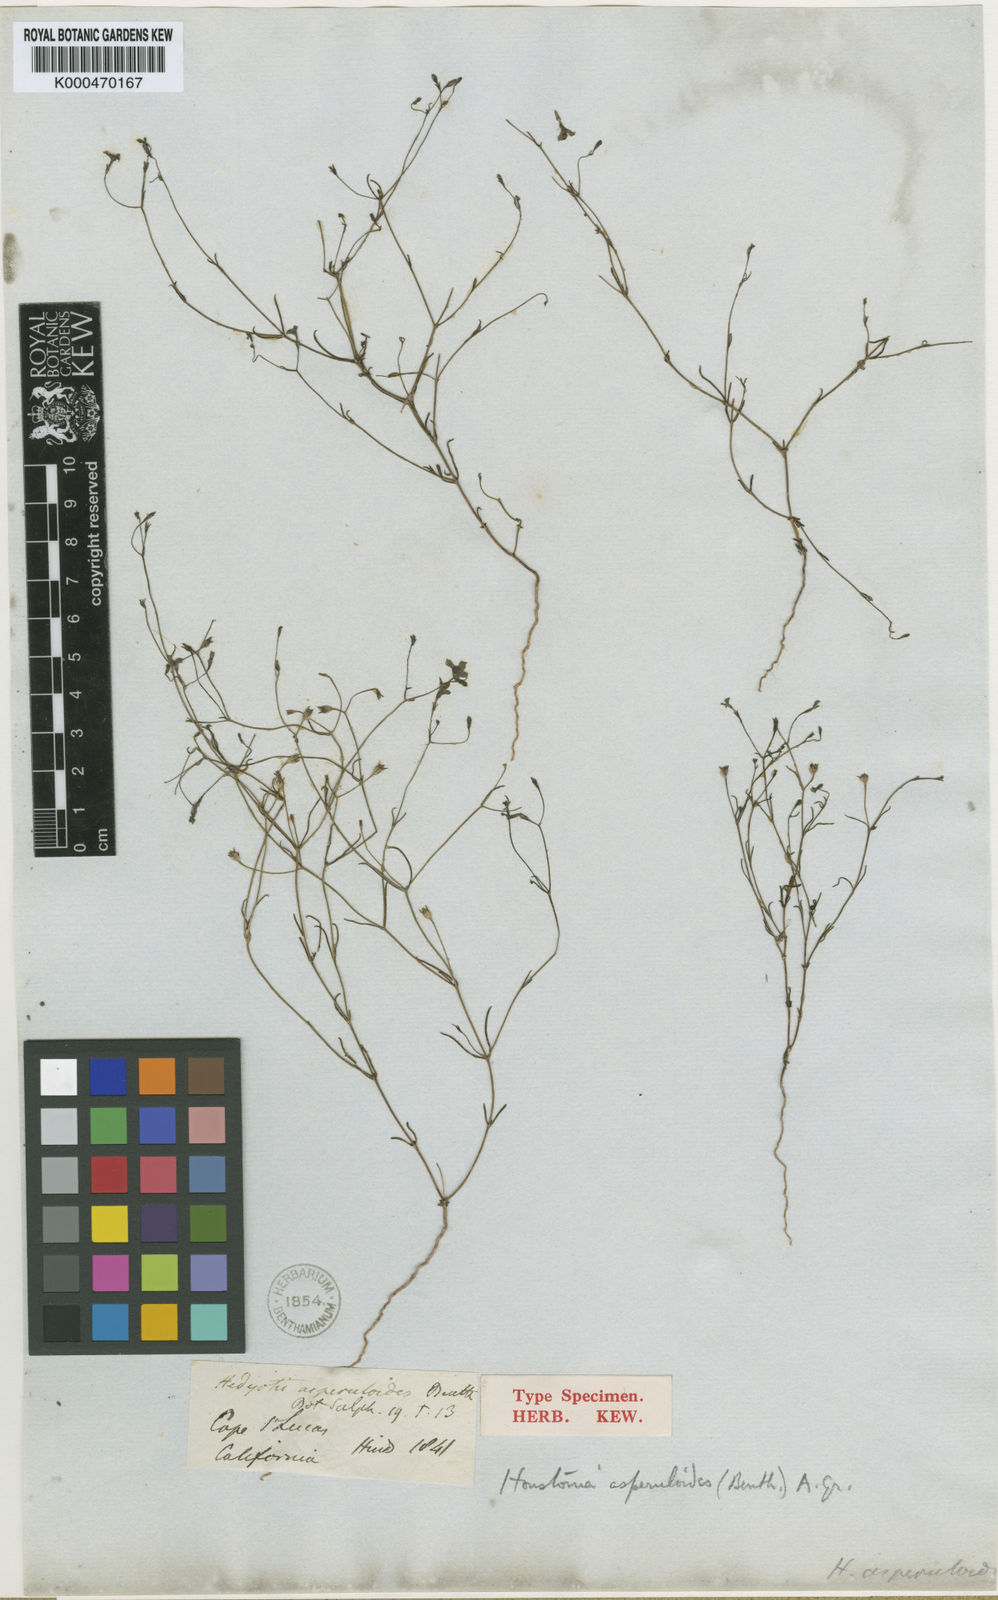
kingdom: Plantae
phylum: Tracheophyta
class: Magnoliopsida
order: Gentianales
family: Rubiaceae
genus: Stenotis
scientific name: Stenotis asperuloides
